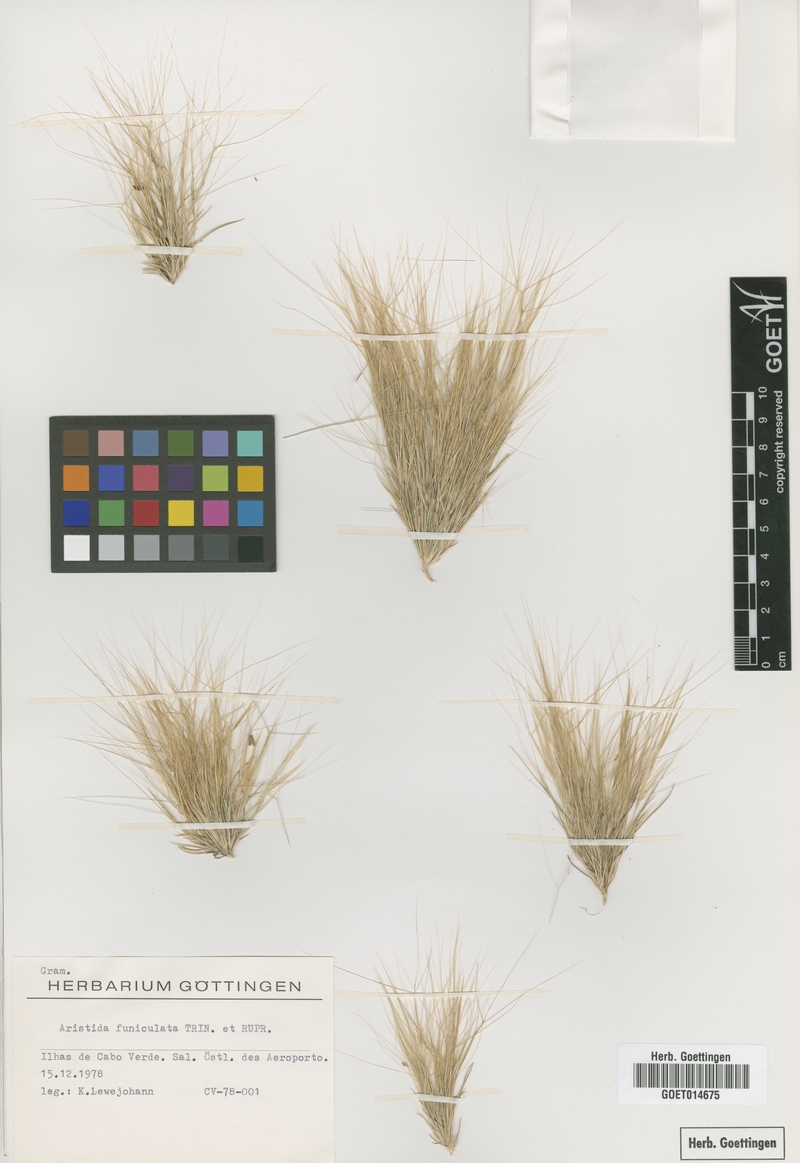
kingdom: Plantae
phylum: Tracheophyta
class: Liliopsida
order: Poales
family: Poaceae
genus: Aristida
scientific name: Aristida funiculata
